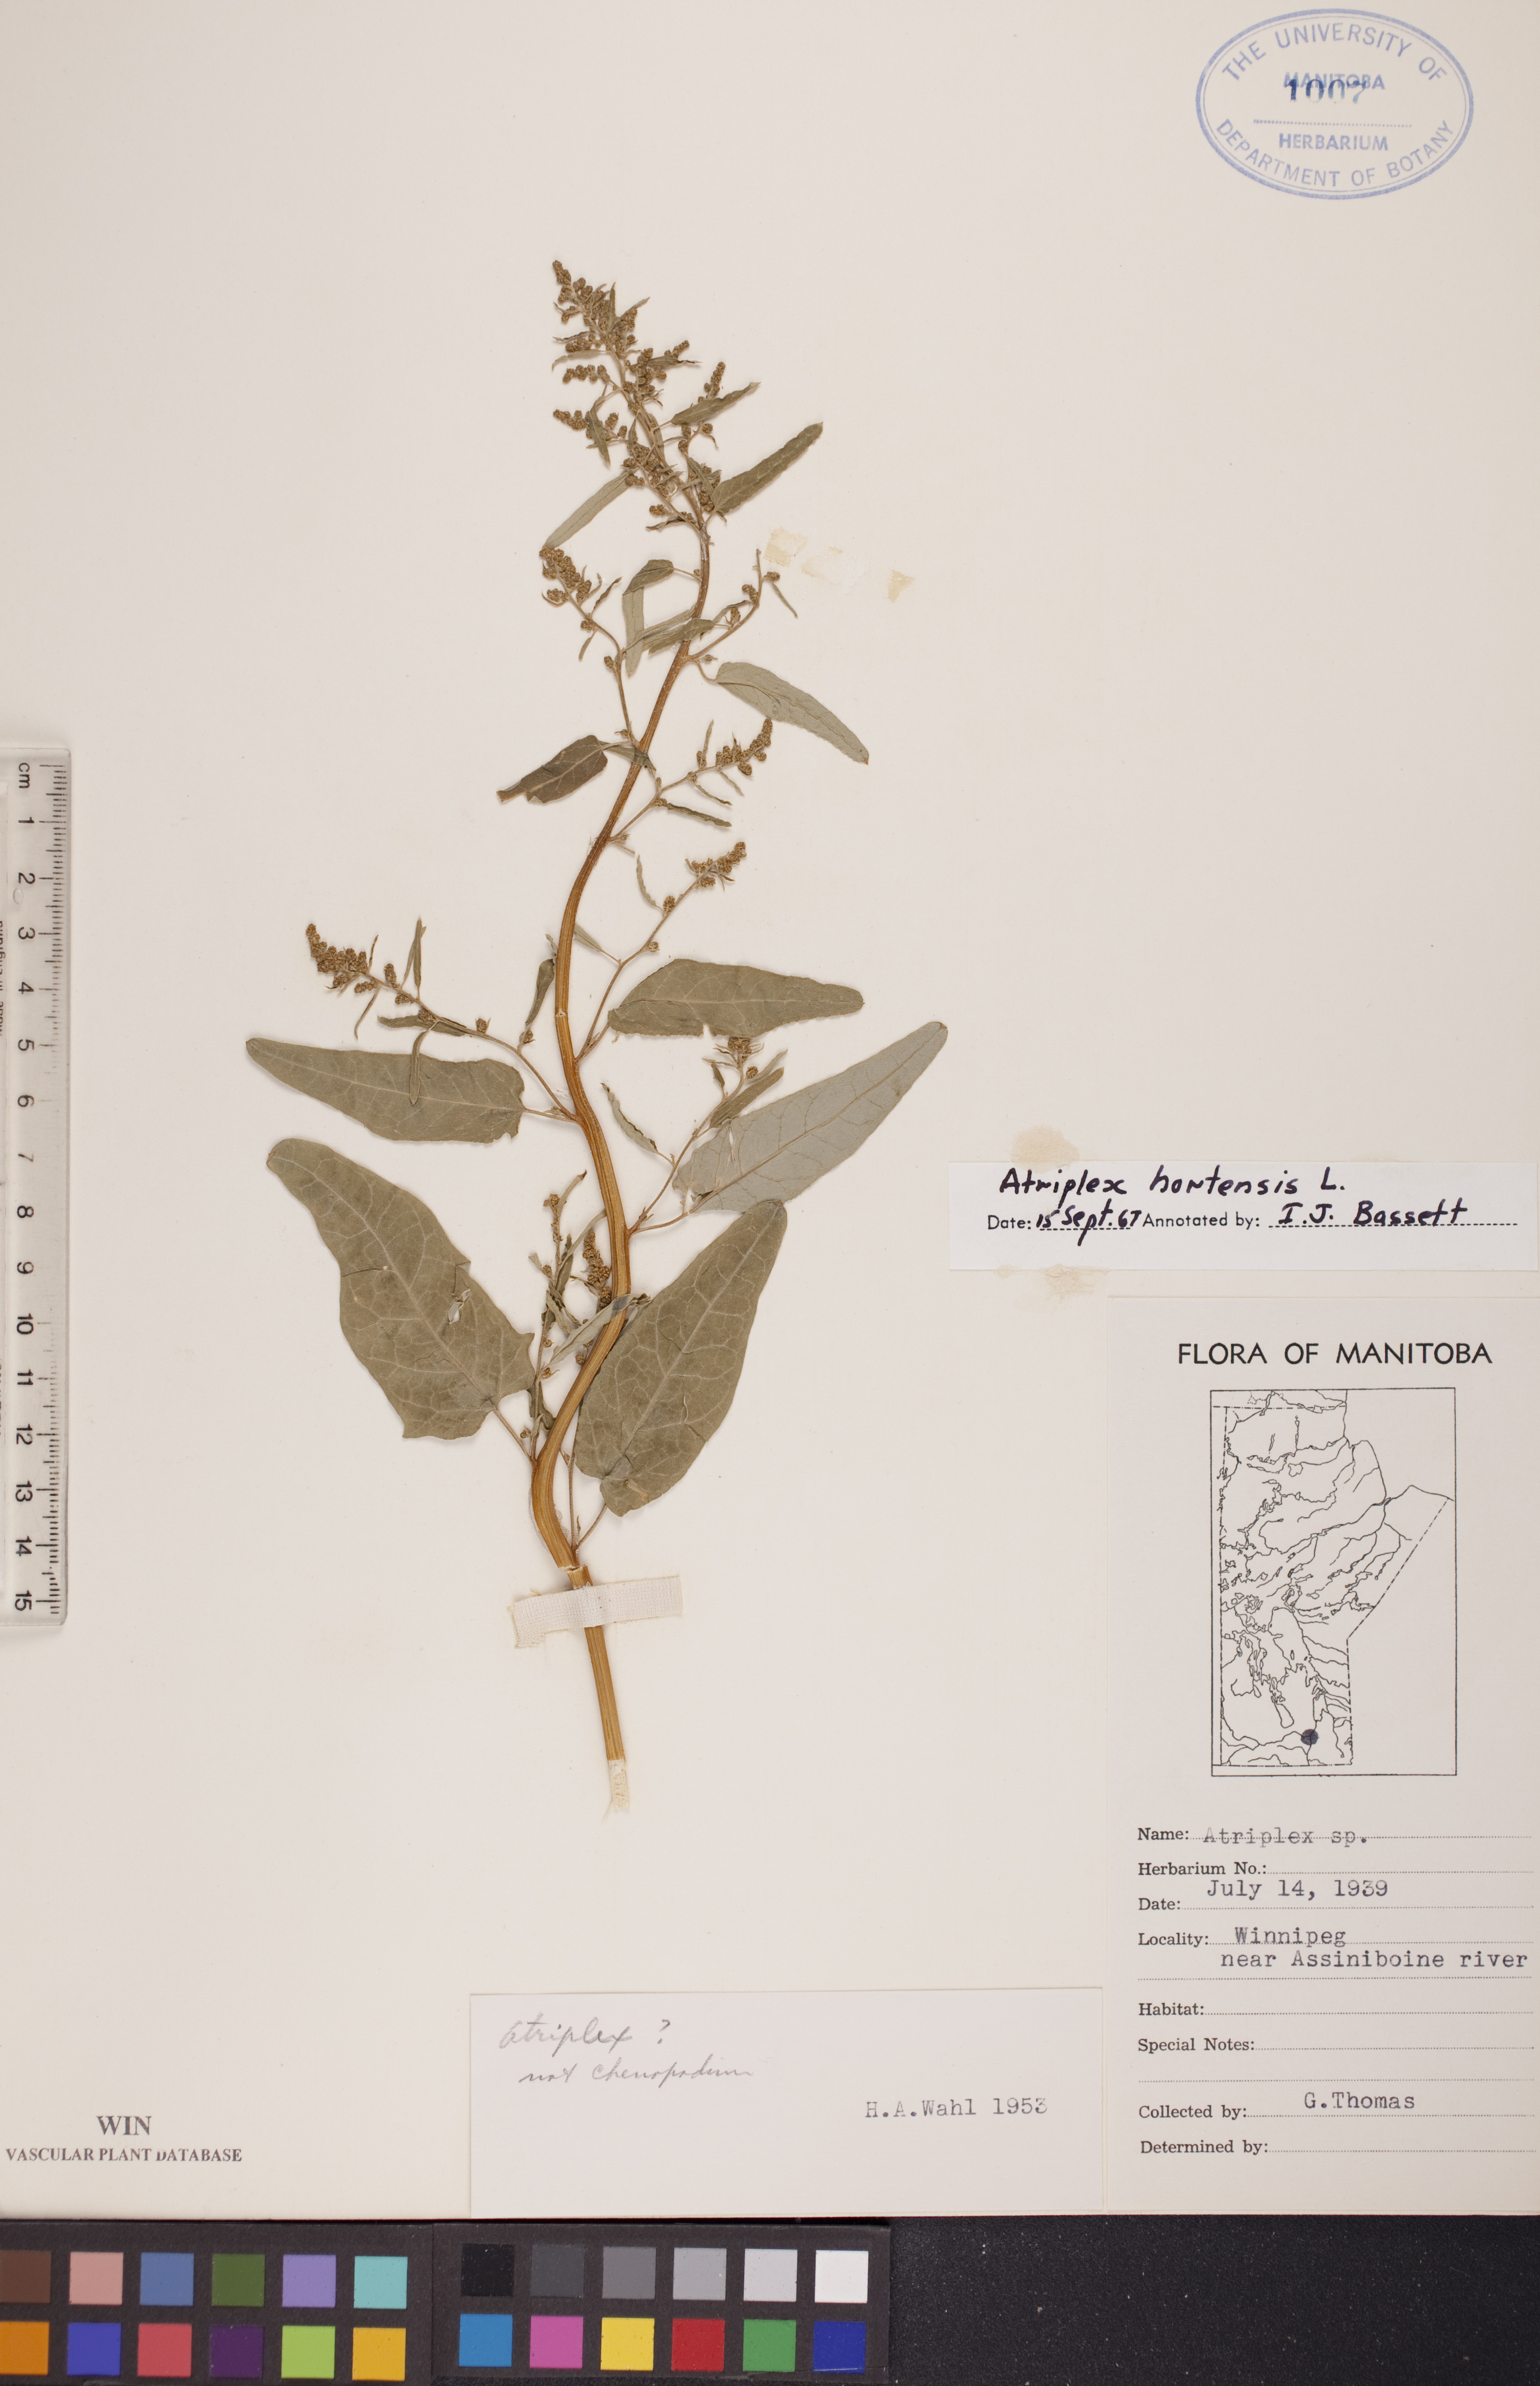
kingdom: Plantae
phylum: Tracheophyta
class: Magnoliopsida
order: Caryophyllales
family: Amaranthaceae
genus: Atriplex
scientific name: Atriplex hortensis
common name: Garden orache
